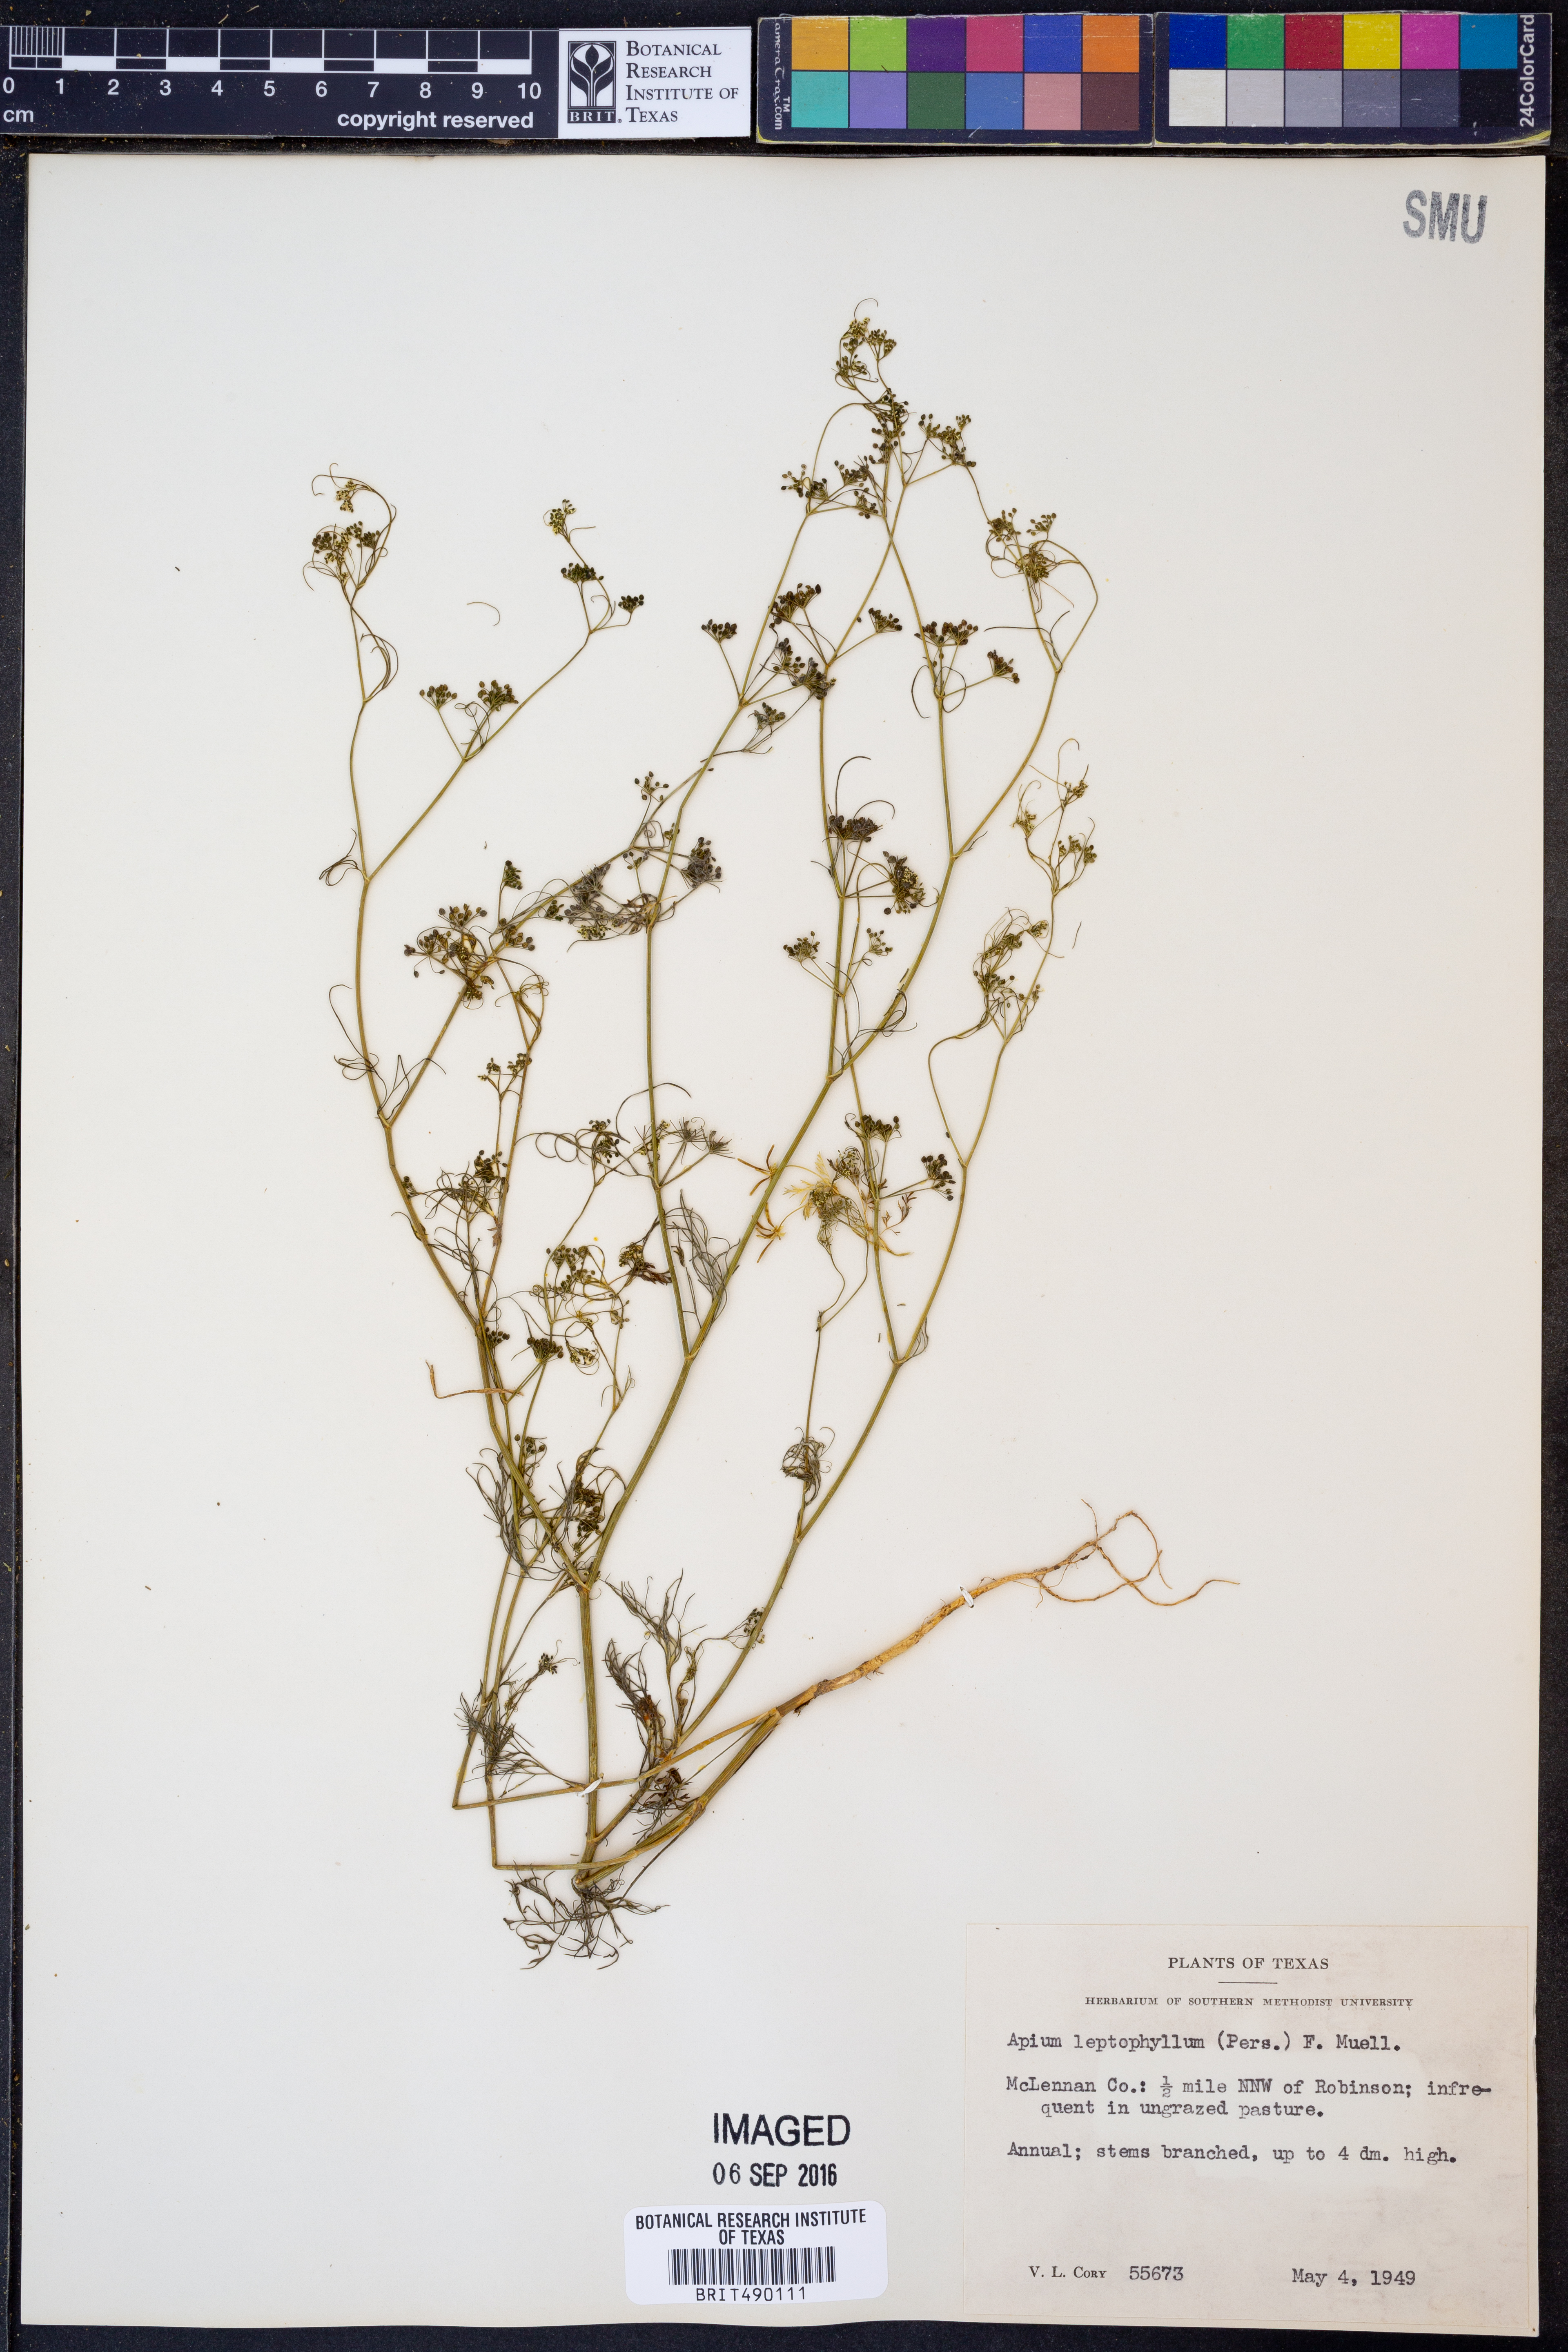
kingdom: Plantae
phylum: Tracheophyta
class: Magnoliopsida
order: Apiales
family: Apiaceae
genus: Cyclospermum
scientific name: Cyclospermum leptophyllum
